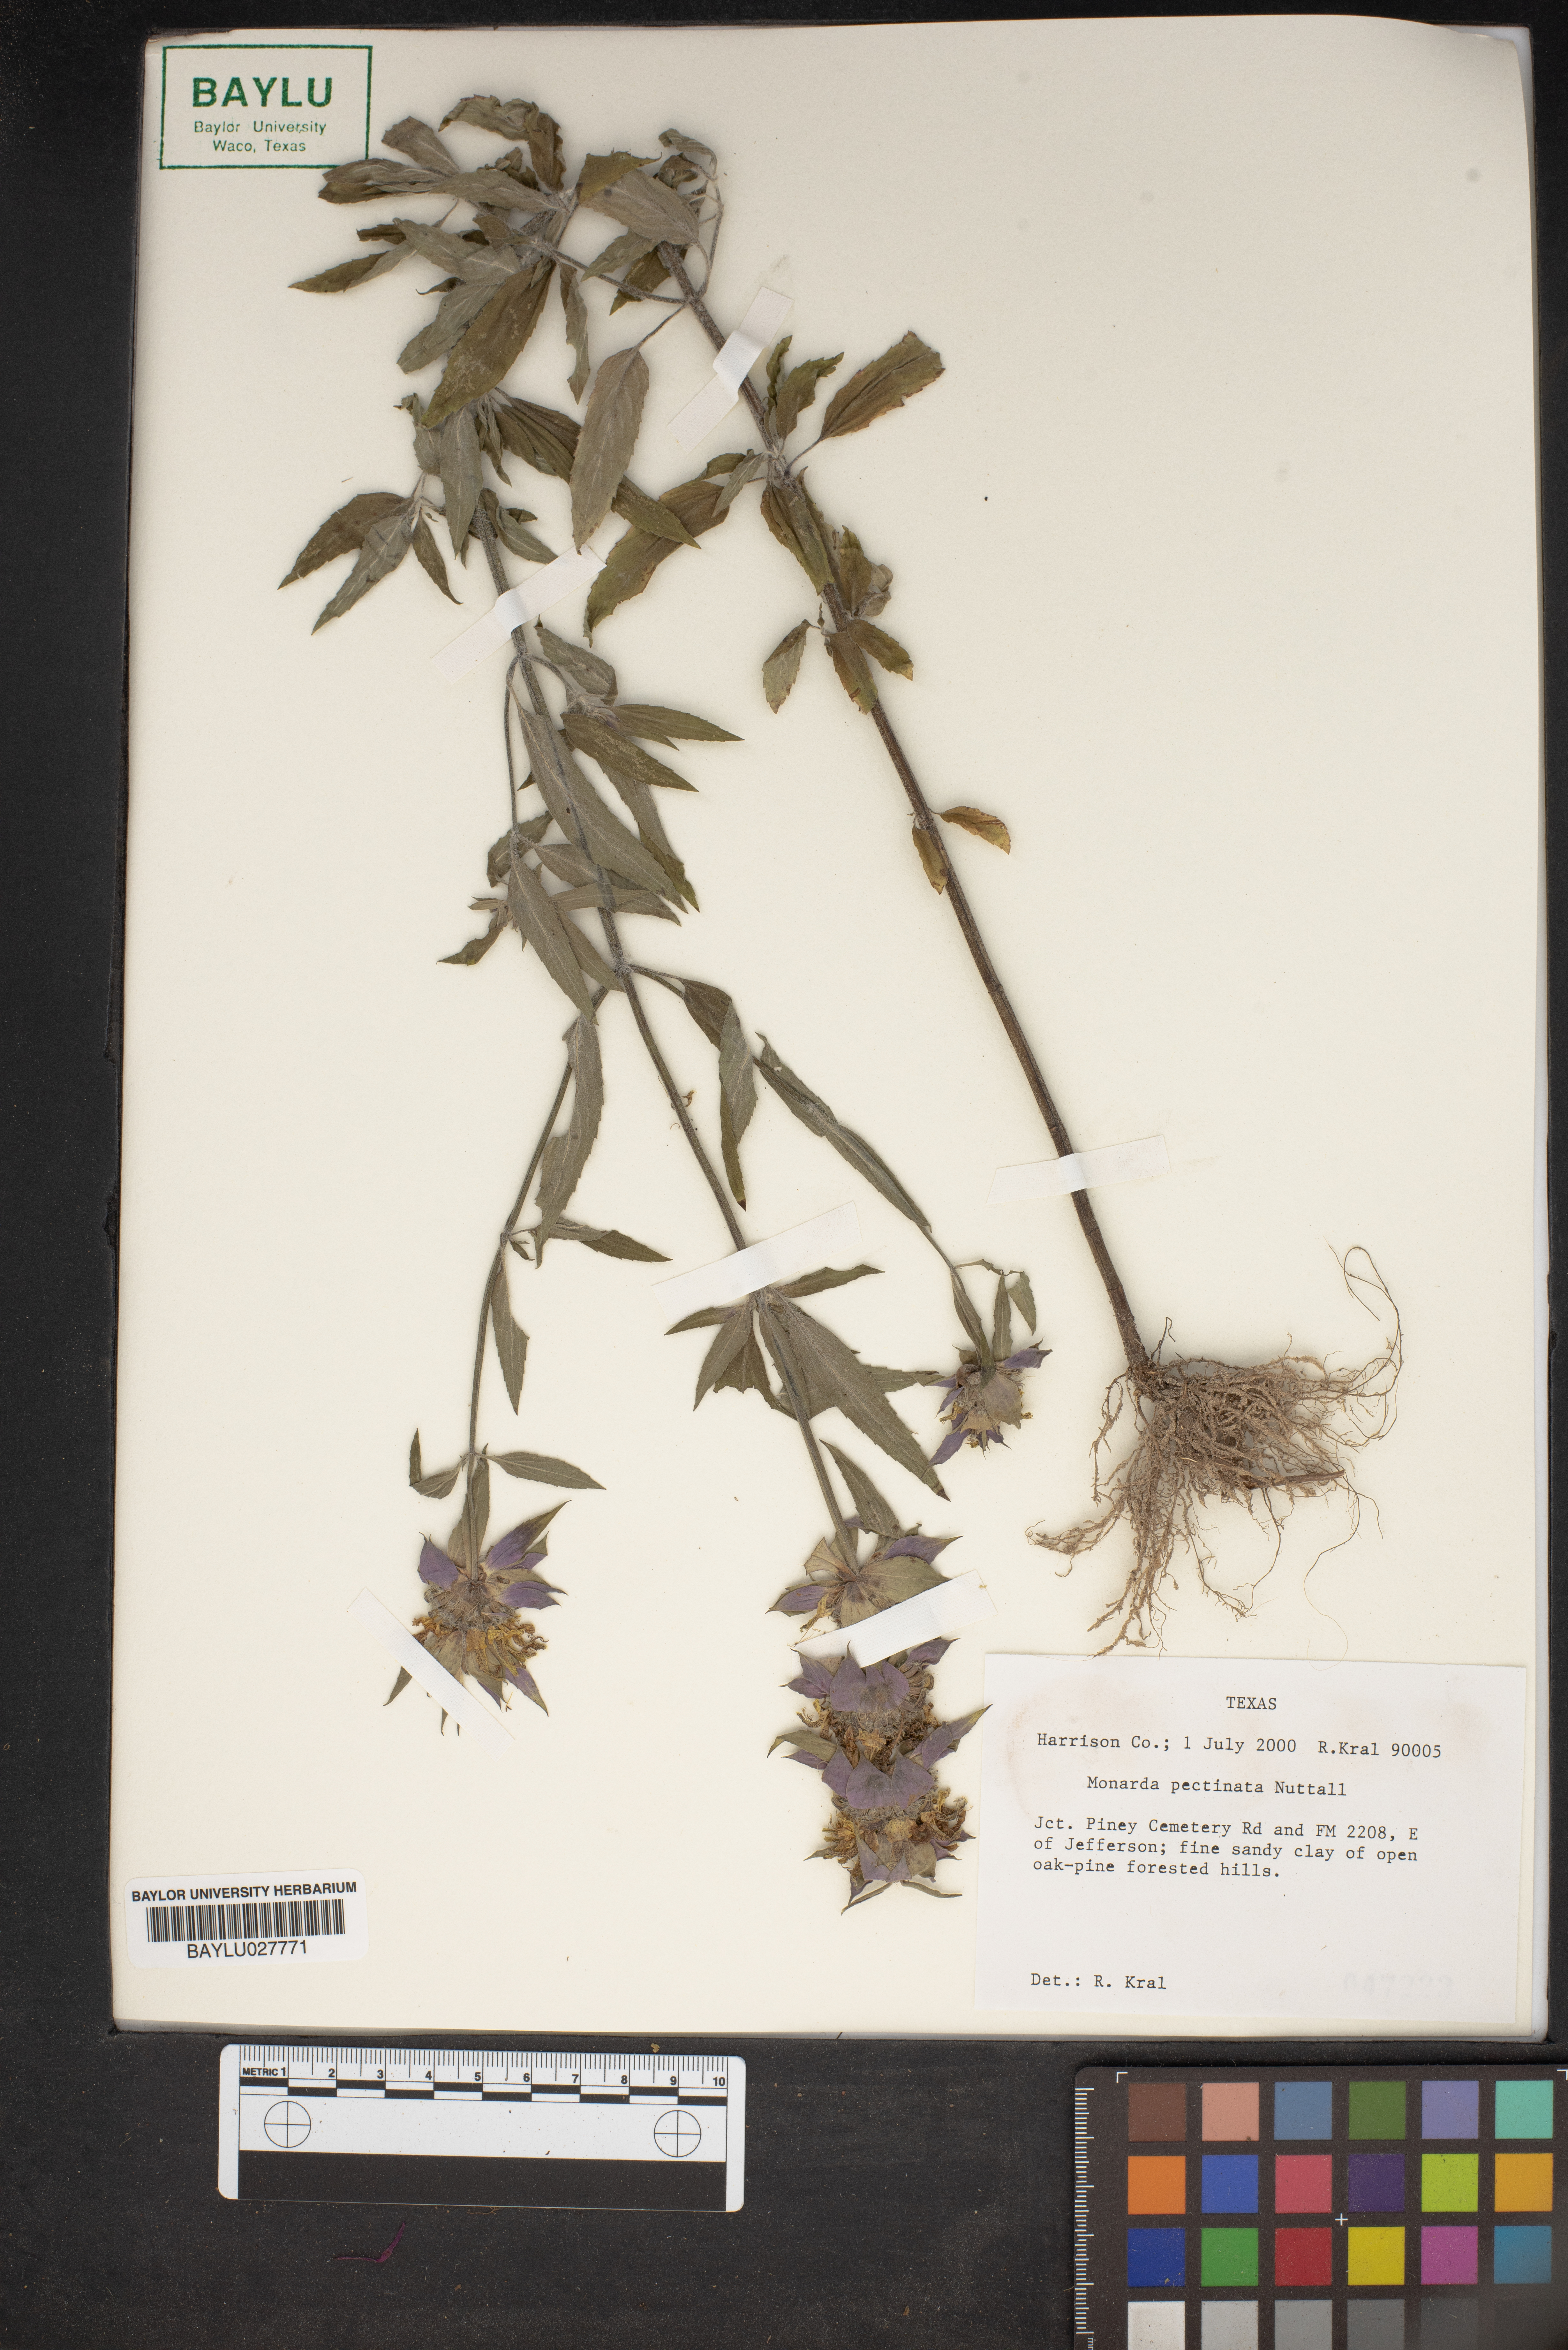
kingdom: Plantae
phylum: Tracheophyta
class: Magnoliopsida
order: Lamiales
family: Lamiaceae
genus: Monarda
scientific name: Monarda pectinata
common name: Plains beebalm
